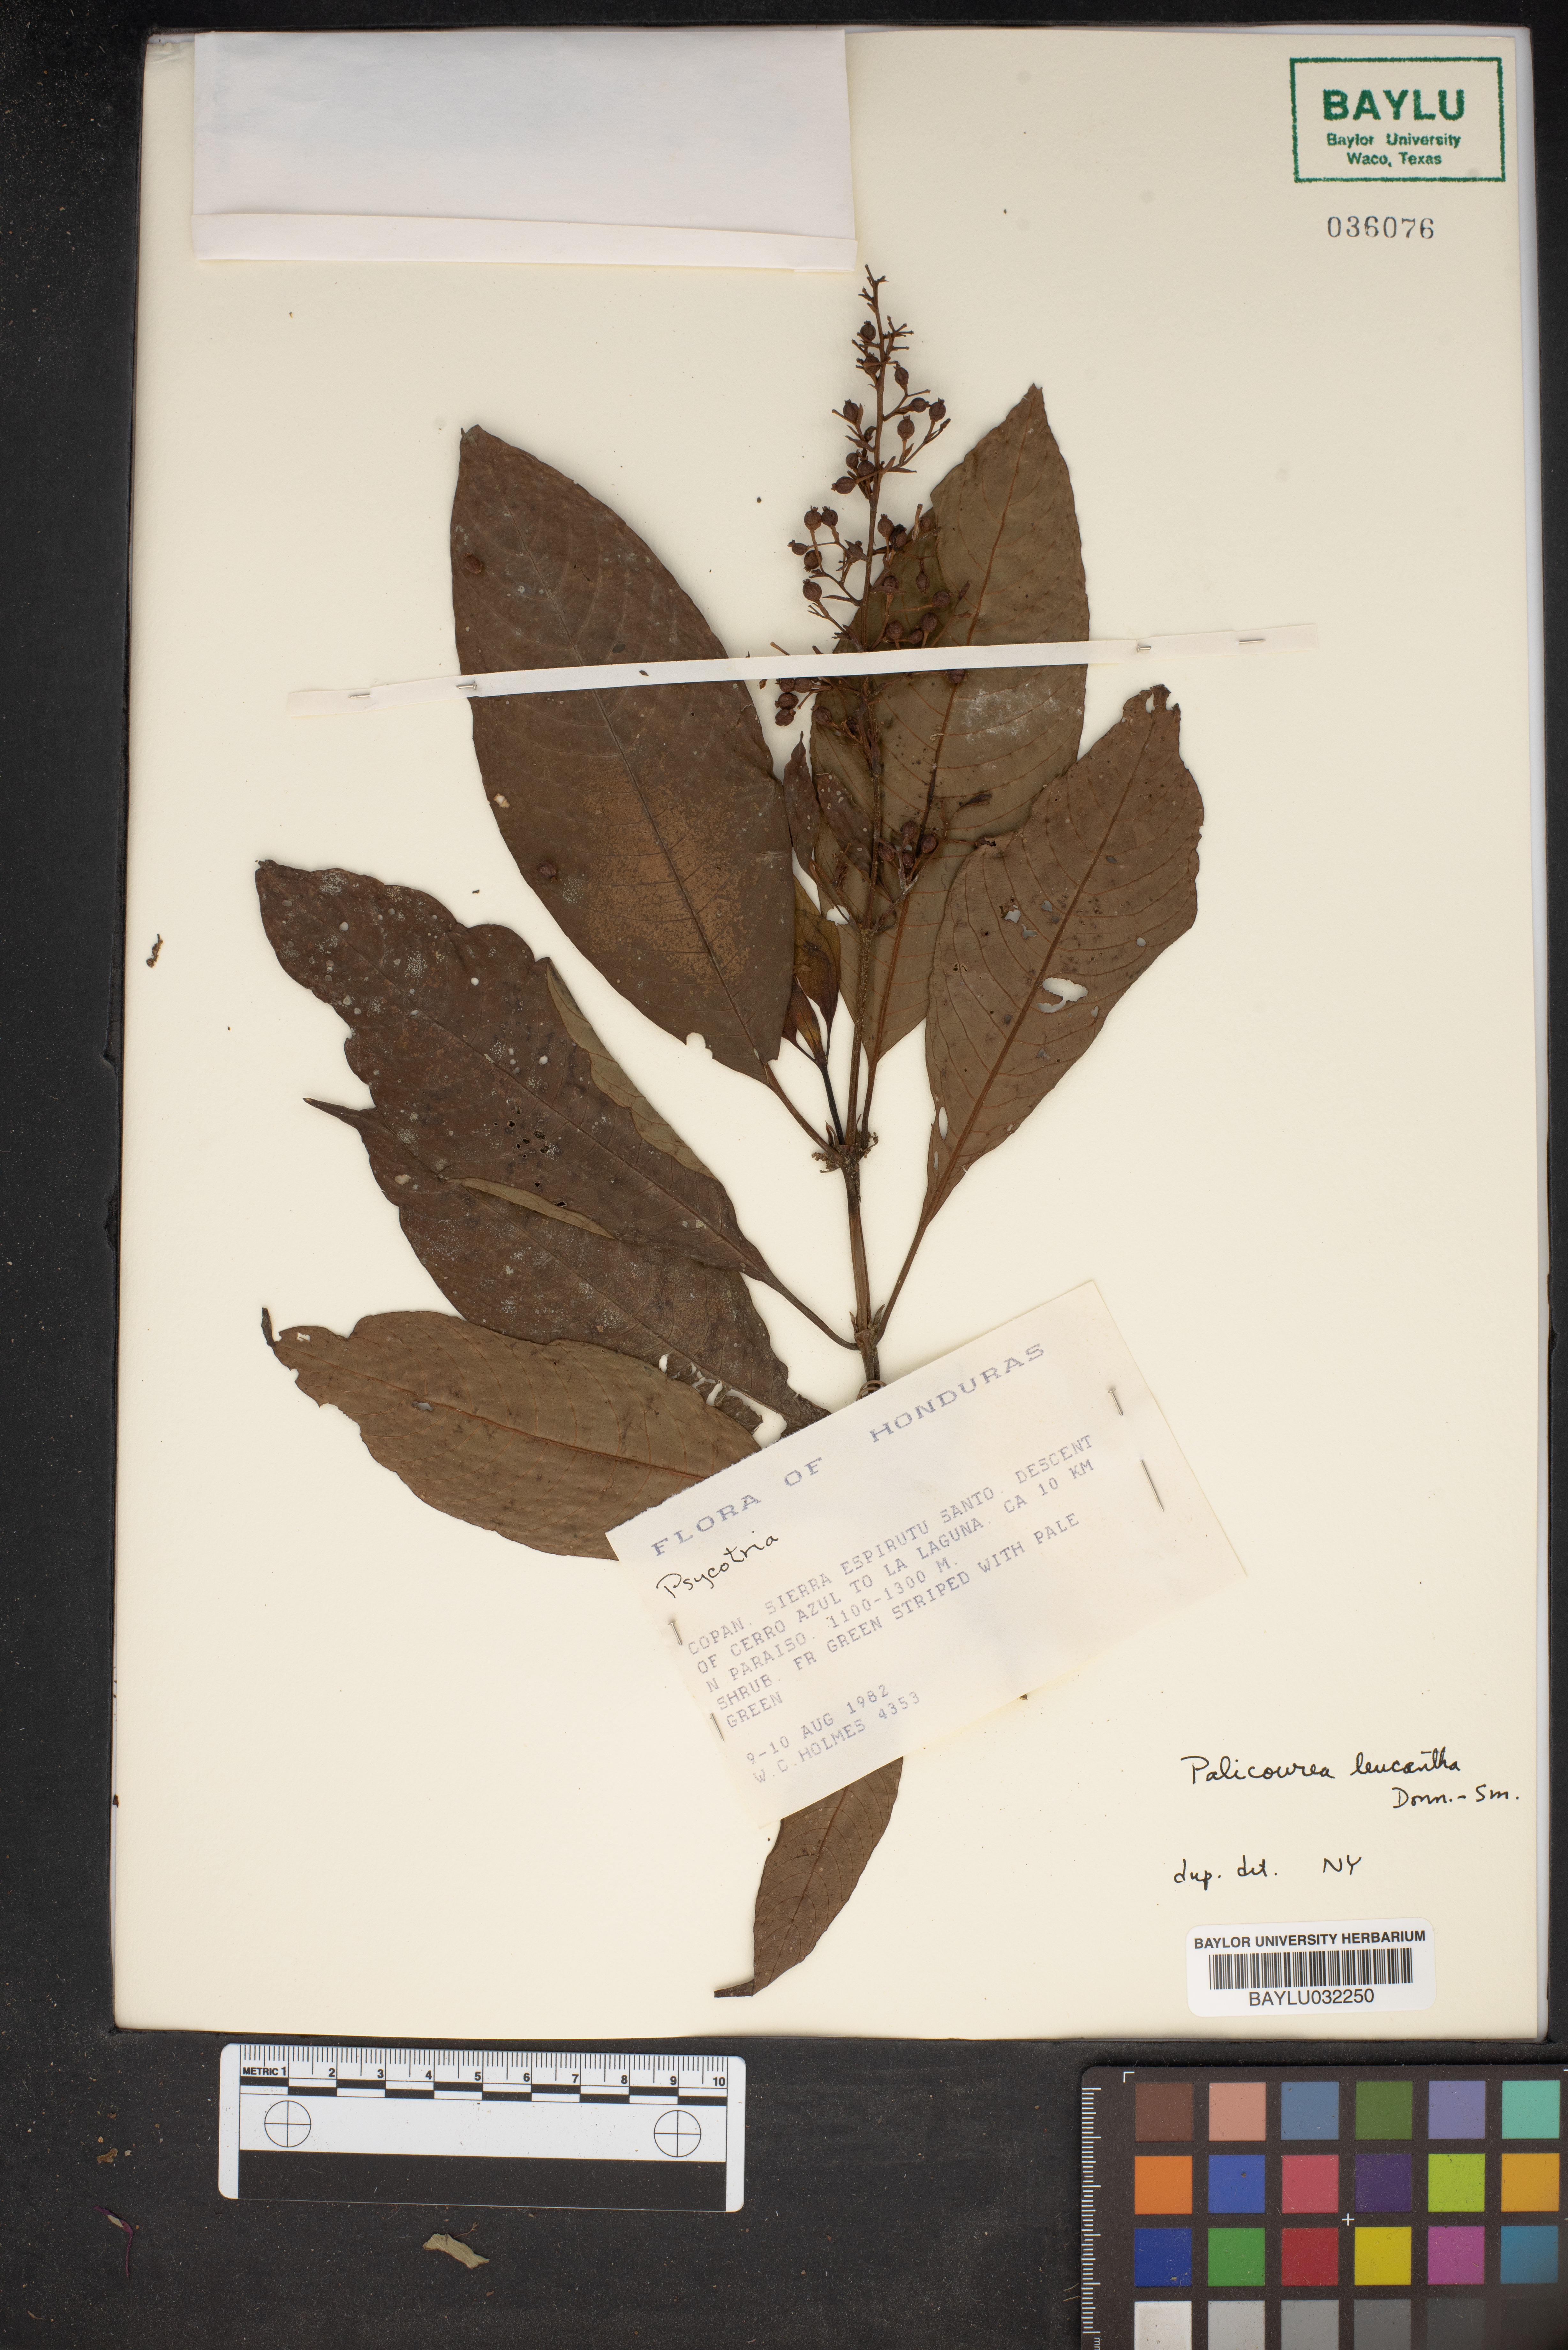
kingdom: Plantae
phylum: Tracheophyta
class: Magnoliopsida
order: Gentianales
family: Rubiaceae
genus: Palicourea
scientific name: Palicourea leucantha
